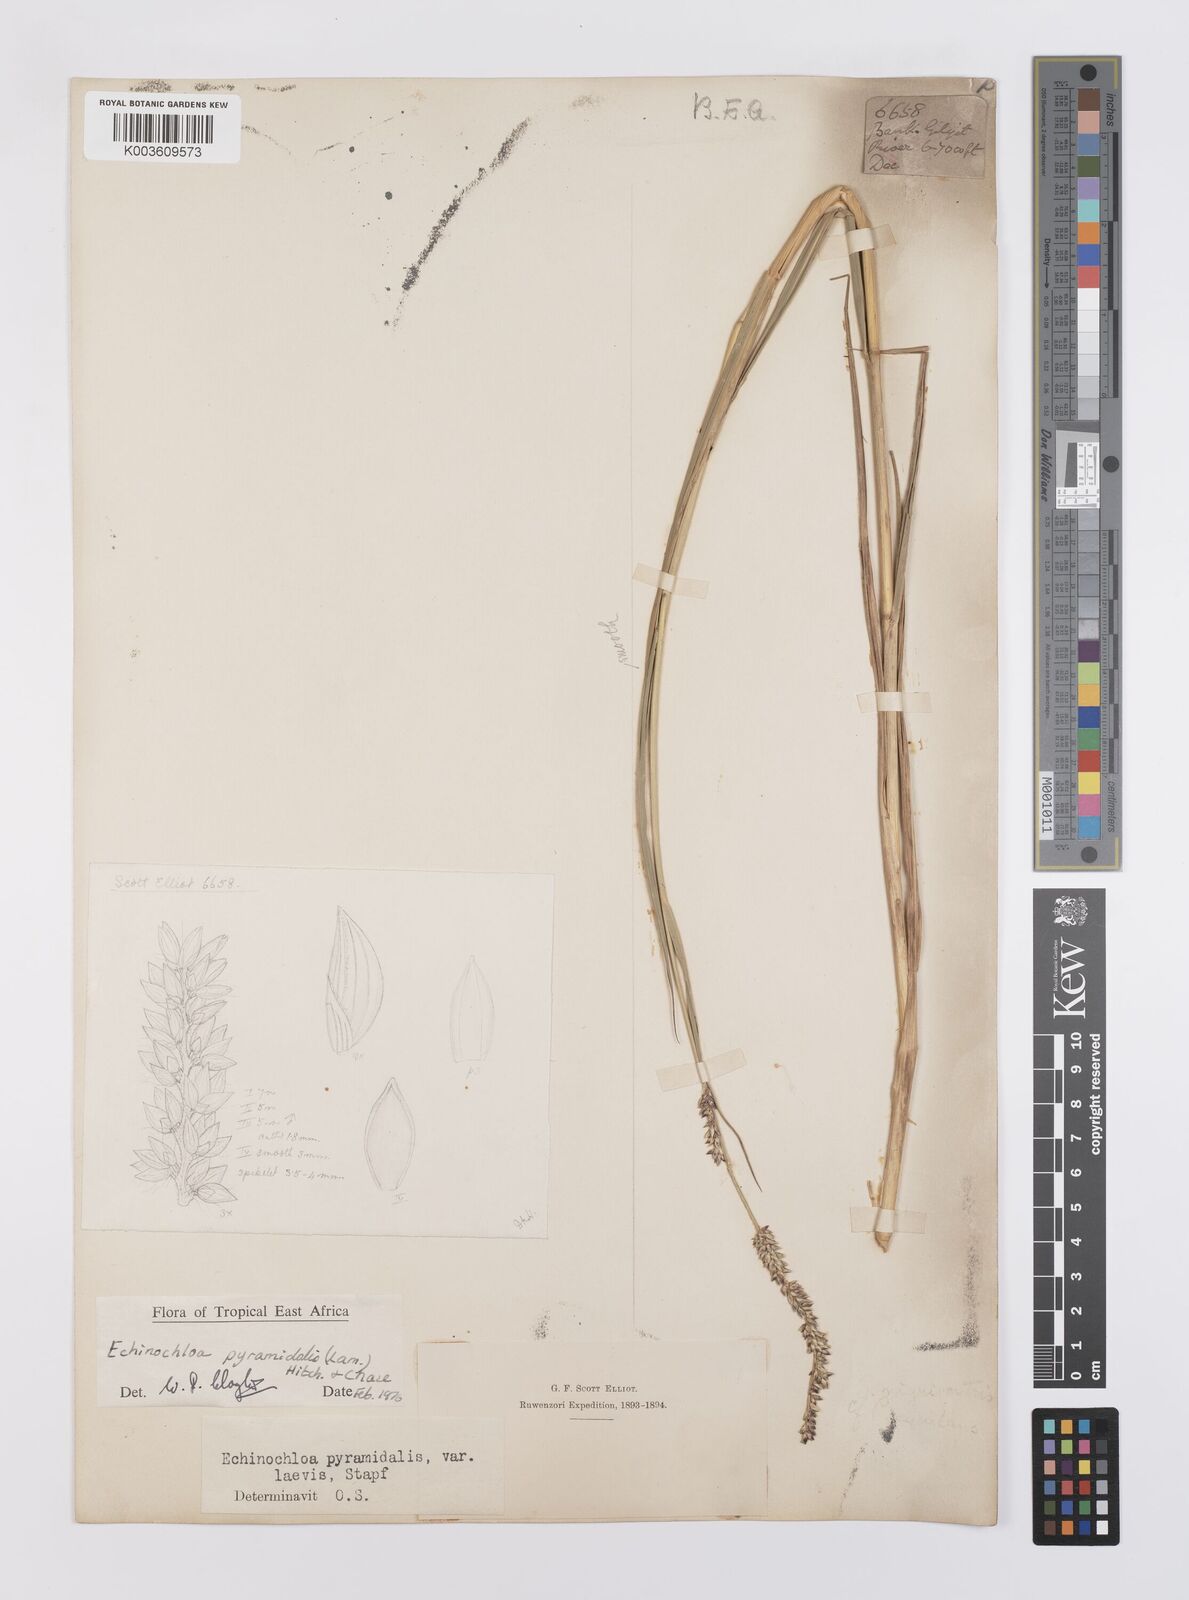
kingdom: Plantae
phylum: Tracheophyta
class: Liliopsida
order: Poales
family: Poaceae
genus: Echinochloa
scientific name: Echinochloa pyramidalis
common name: Antelope grass
